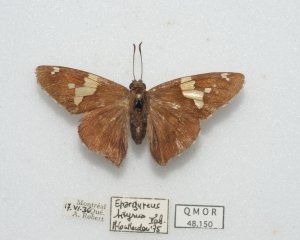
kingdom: Animalia
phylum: Arthropoda
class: Insecta
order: Lepidoptera
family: Hesperiidae
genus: Epargyreus
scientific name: Epargyreus clarus
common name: Silver-spotted Skipper
